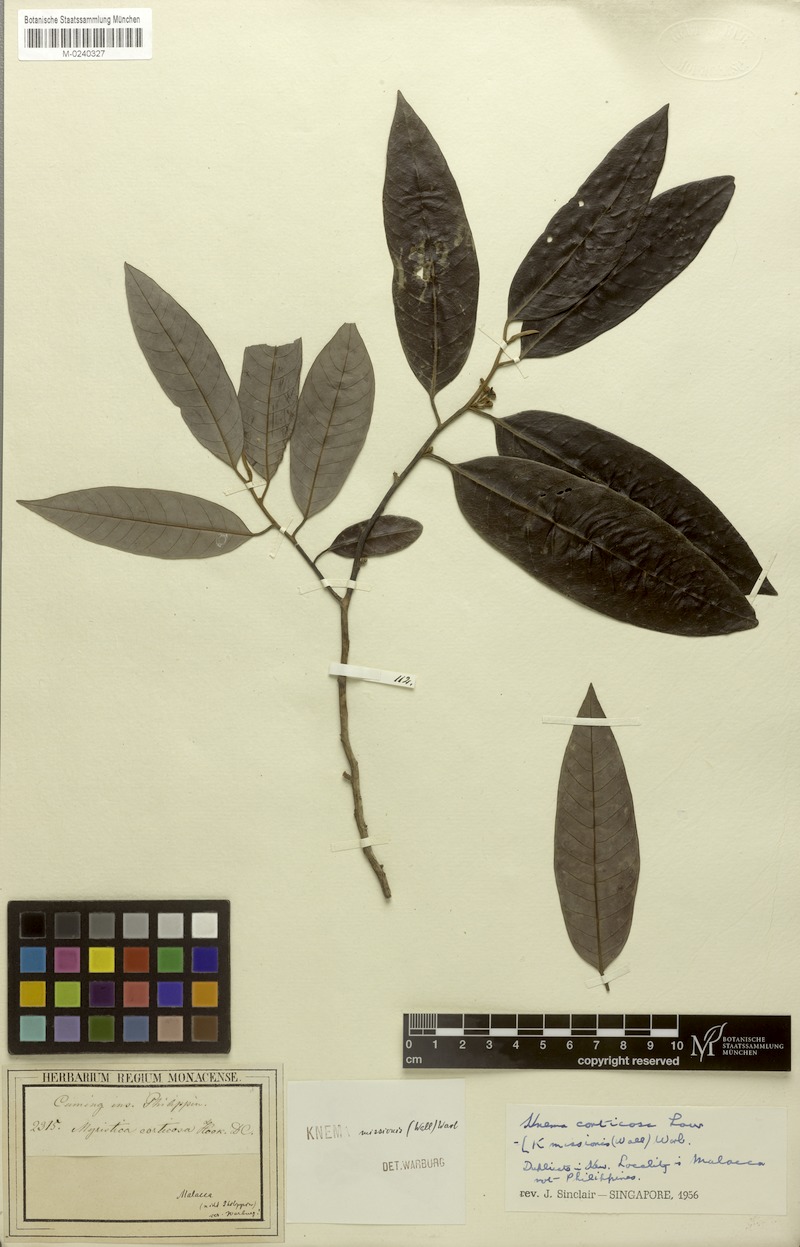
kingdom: Plantae
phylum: Tracheophyta
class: Magnoliopsida
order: Magnoliales
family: Myristicaceae
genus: Knema
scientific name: Knema globularia
